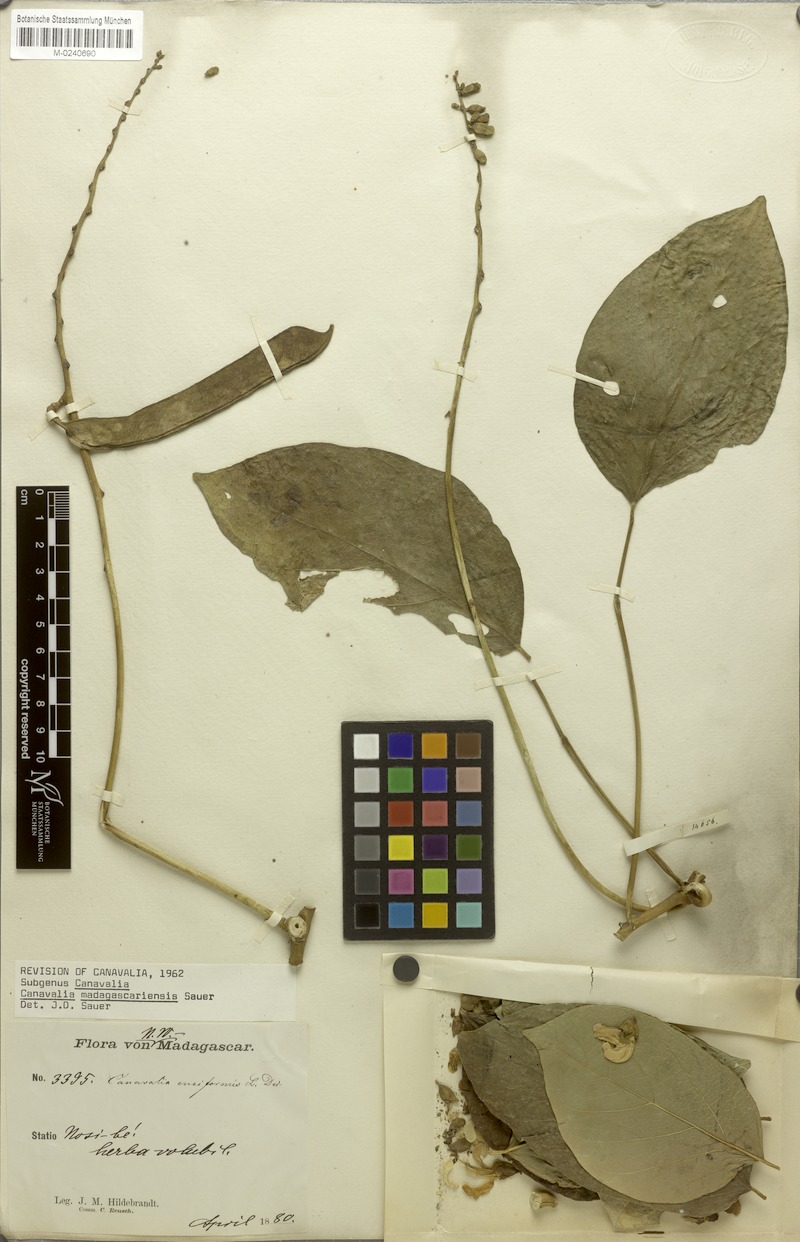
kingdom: Plantae
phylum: Tracheophyta
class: Magnoliopsida
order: Fabales
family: Fabaceae
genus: Canavalia
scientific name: Canavalia madagascariensis
